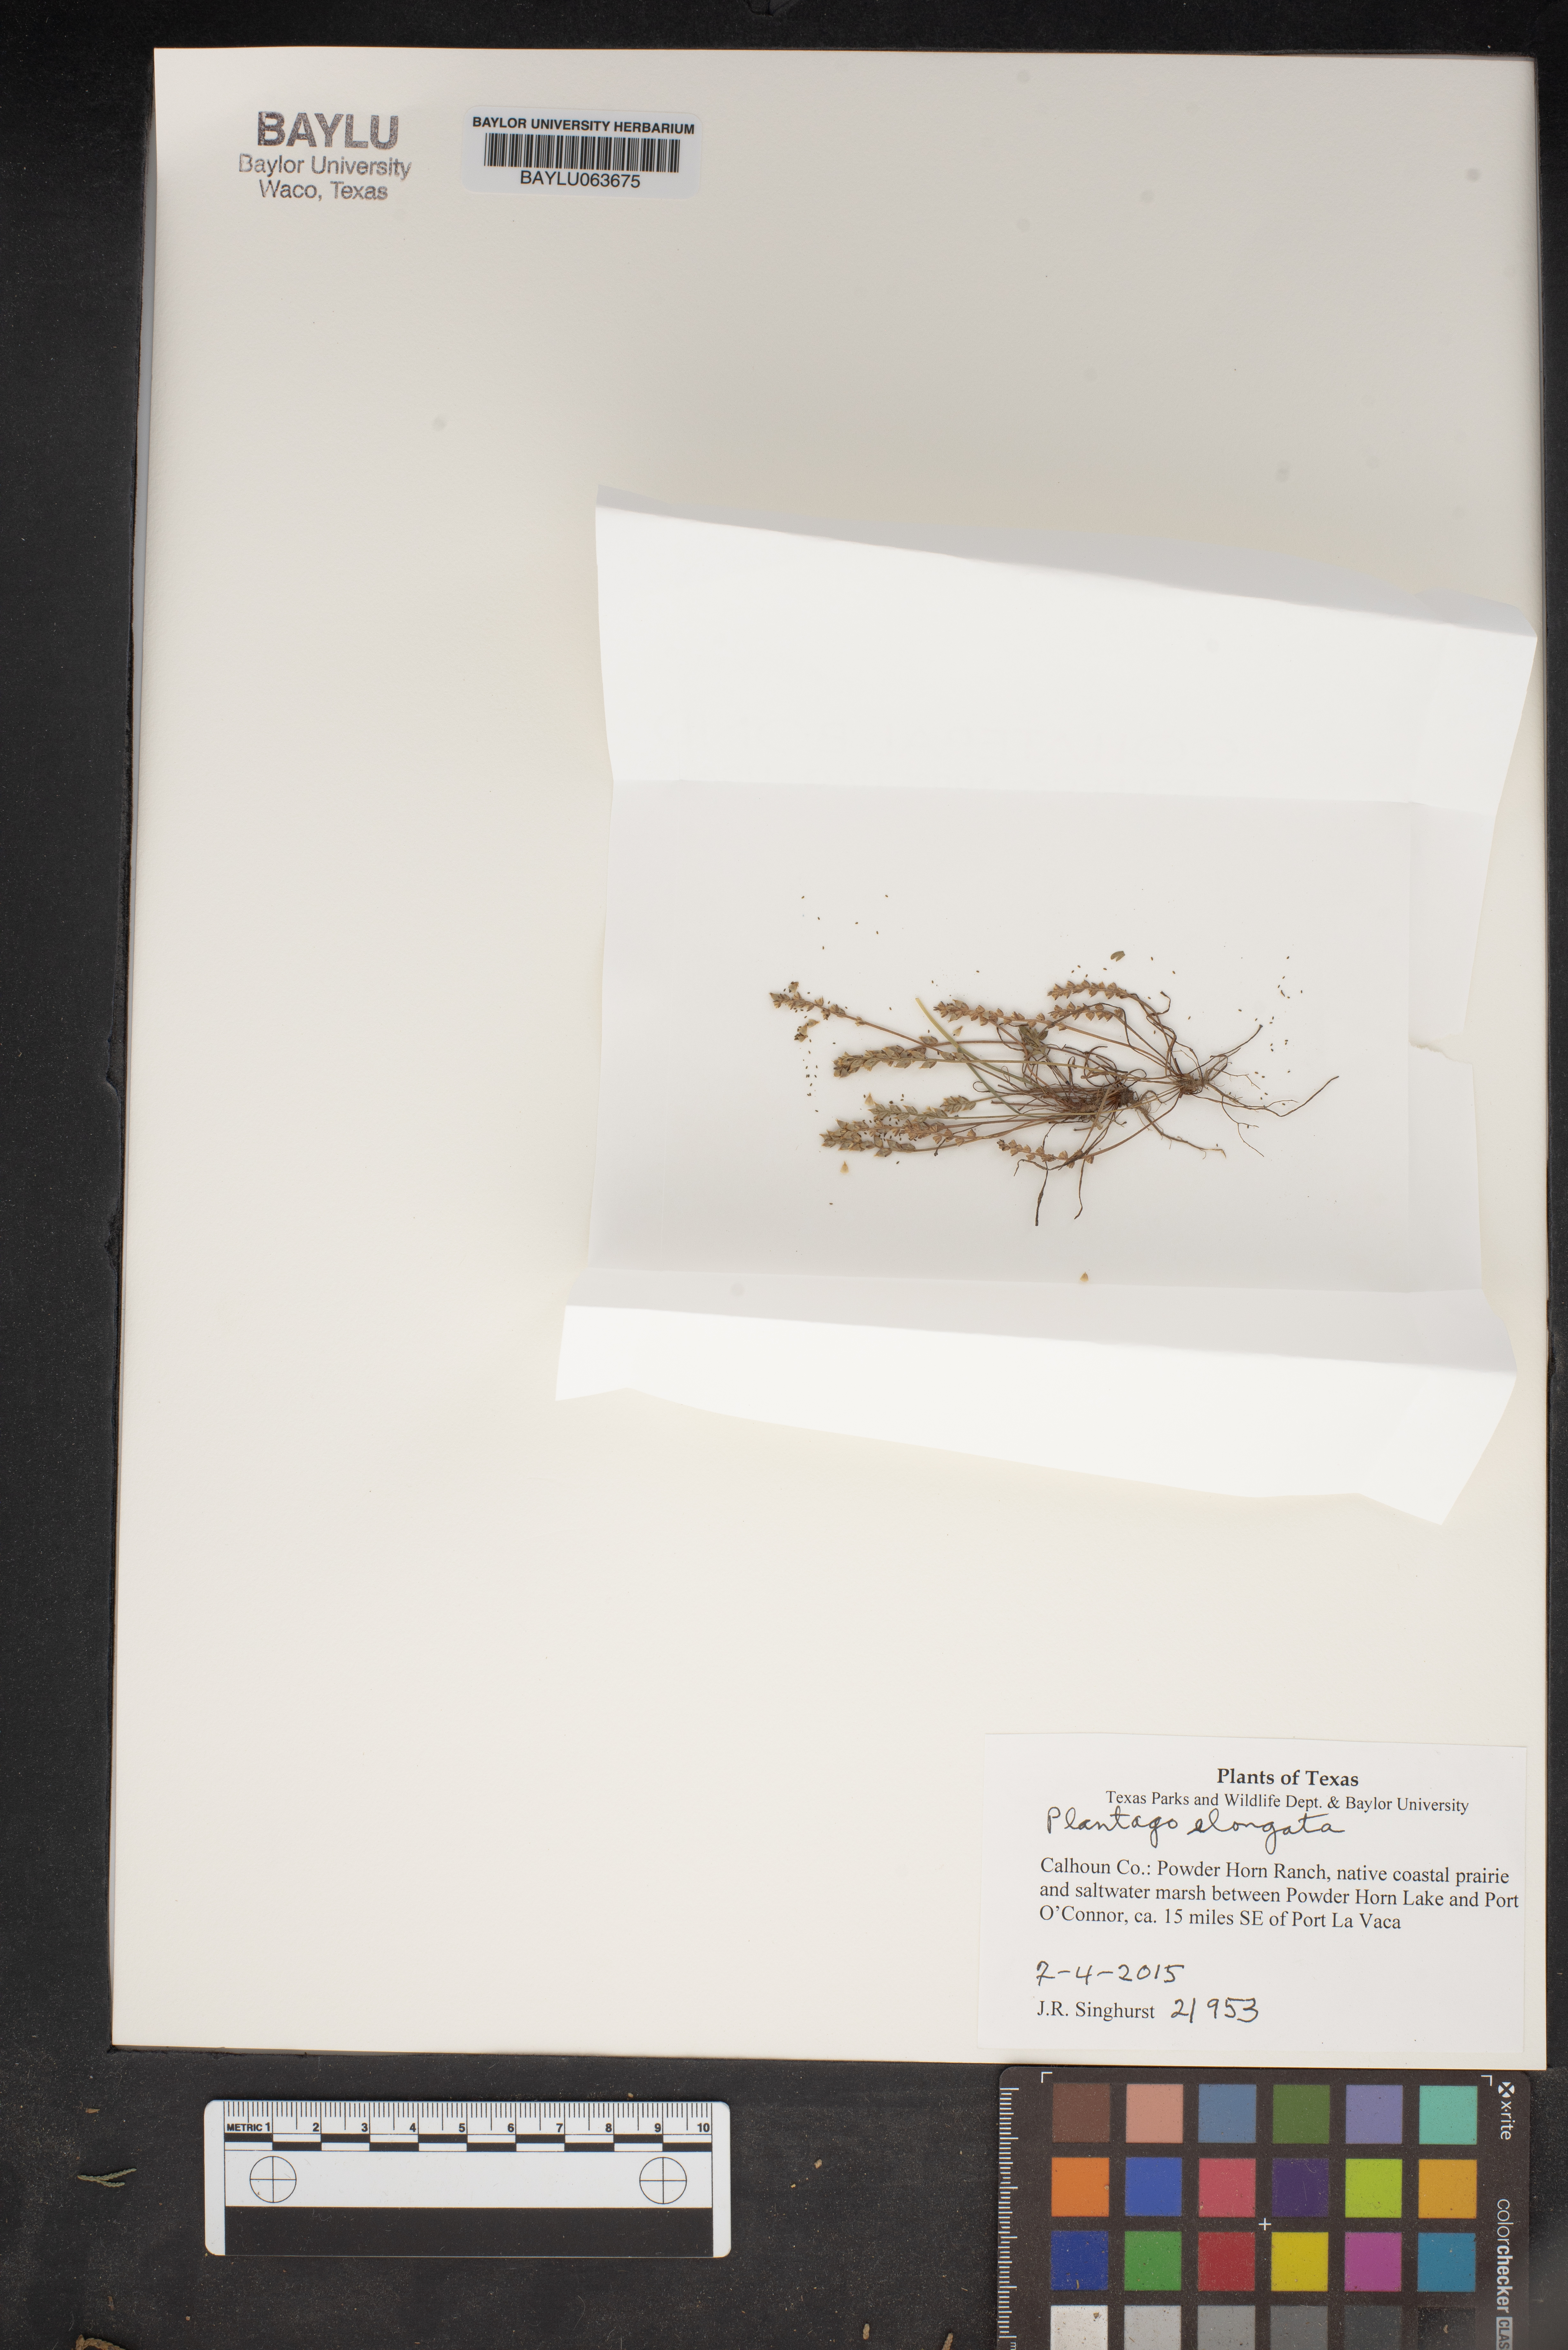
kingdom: Plantae
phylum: Tracheophyta
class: Magnoliopsida
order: Lamiales
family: Plantaginaceae
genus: Plantago
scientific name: Plantago elongata
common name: Linear-leaved plantain
